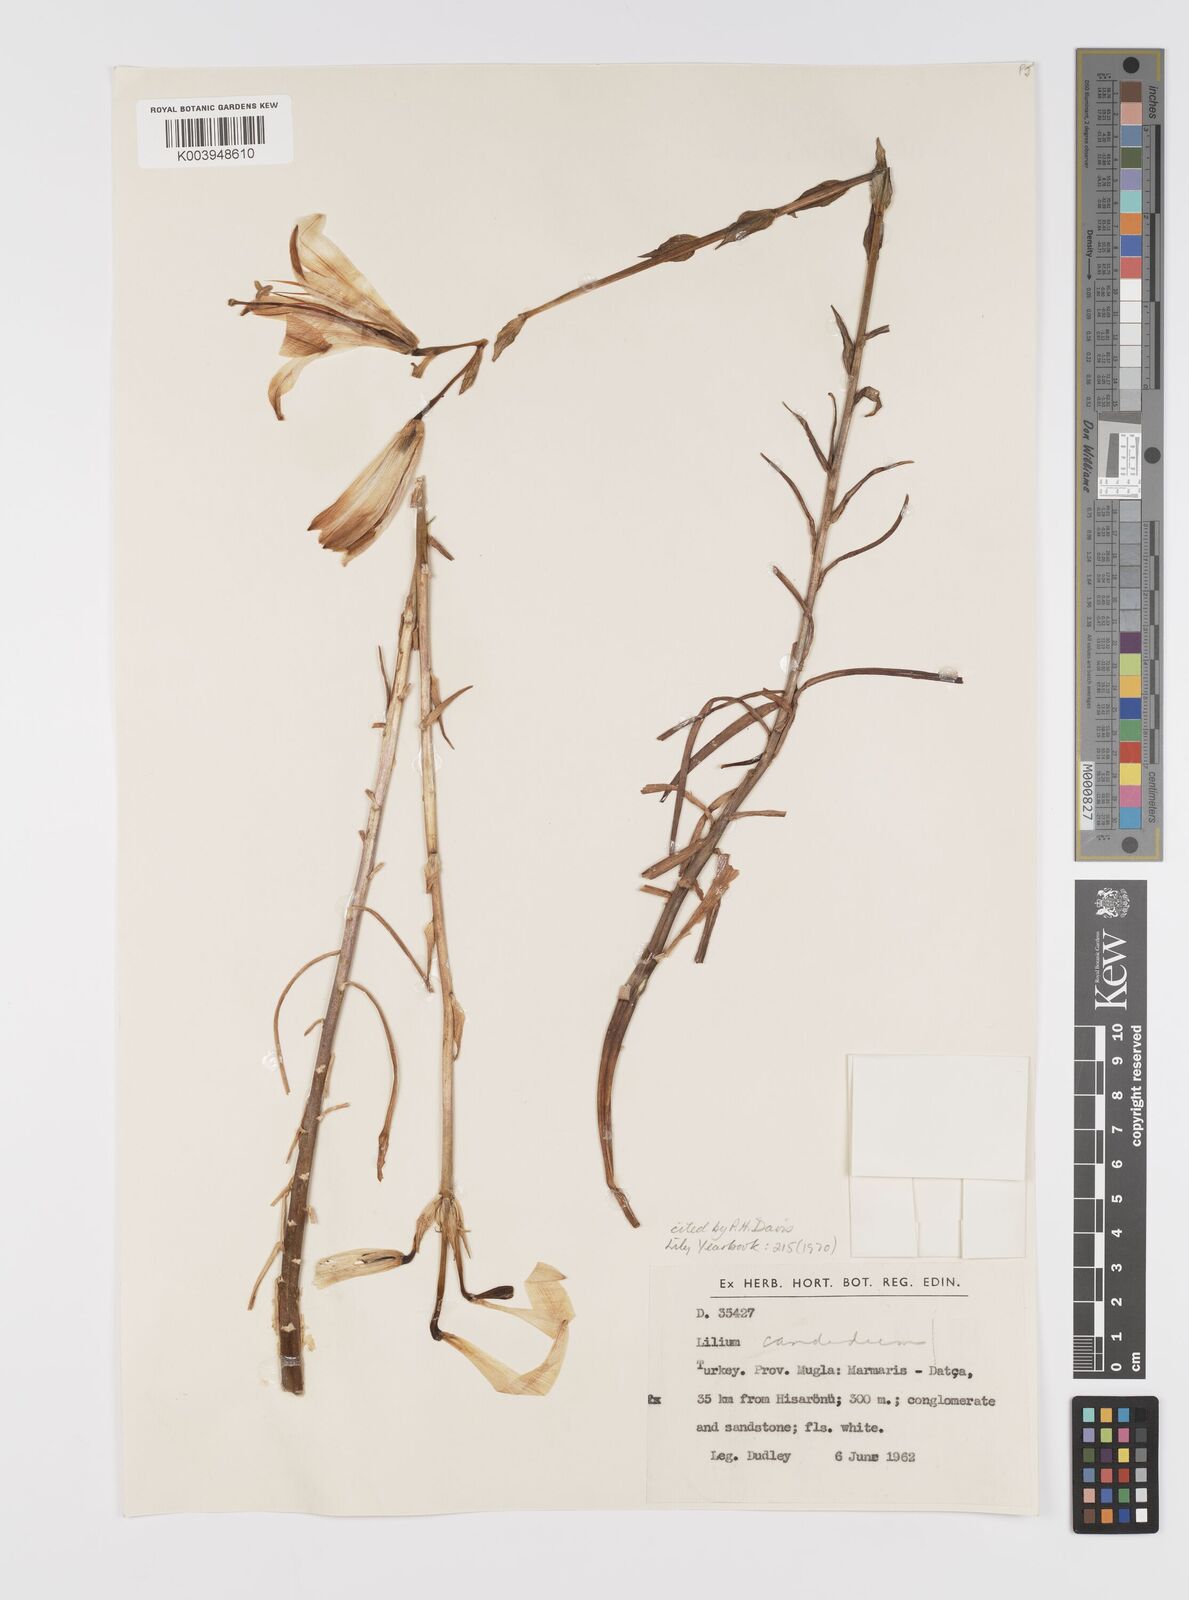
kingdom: Plantae
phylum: Tracheophyta
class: Liliopsida
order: Liliales
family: Liliaceae
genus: Lilium
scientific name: Lilium candidum
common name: Madonna lily
